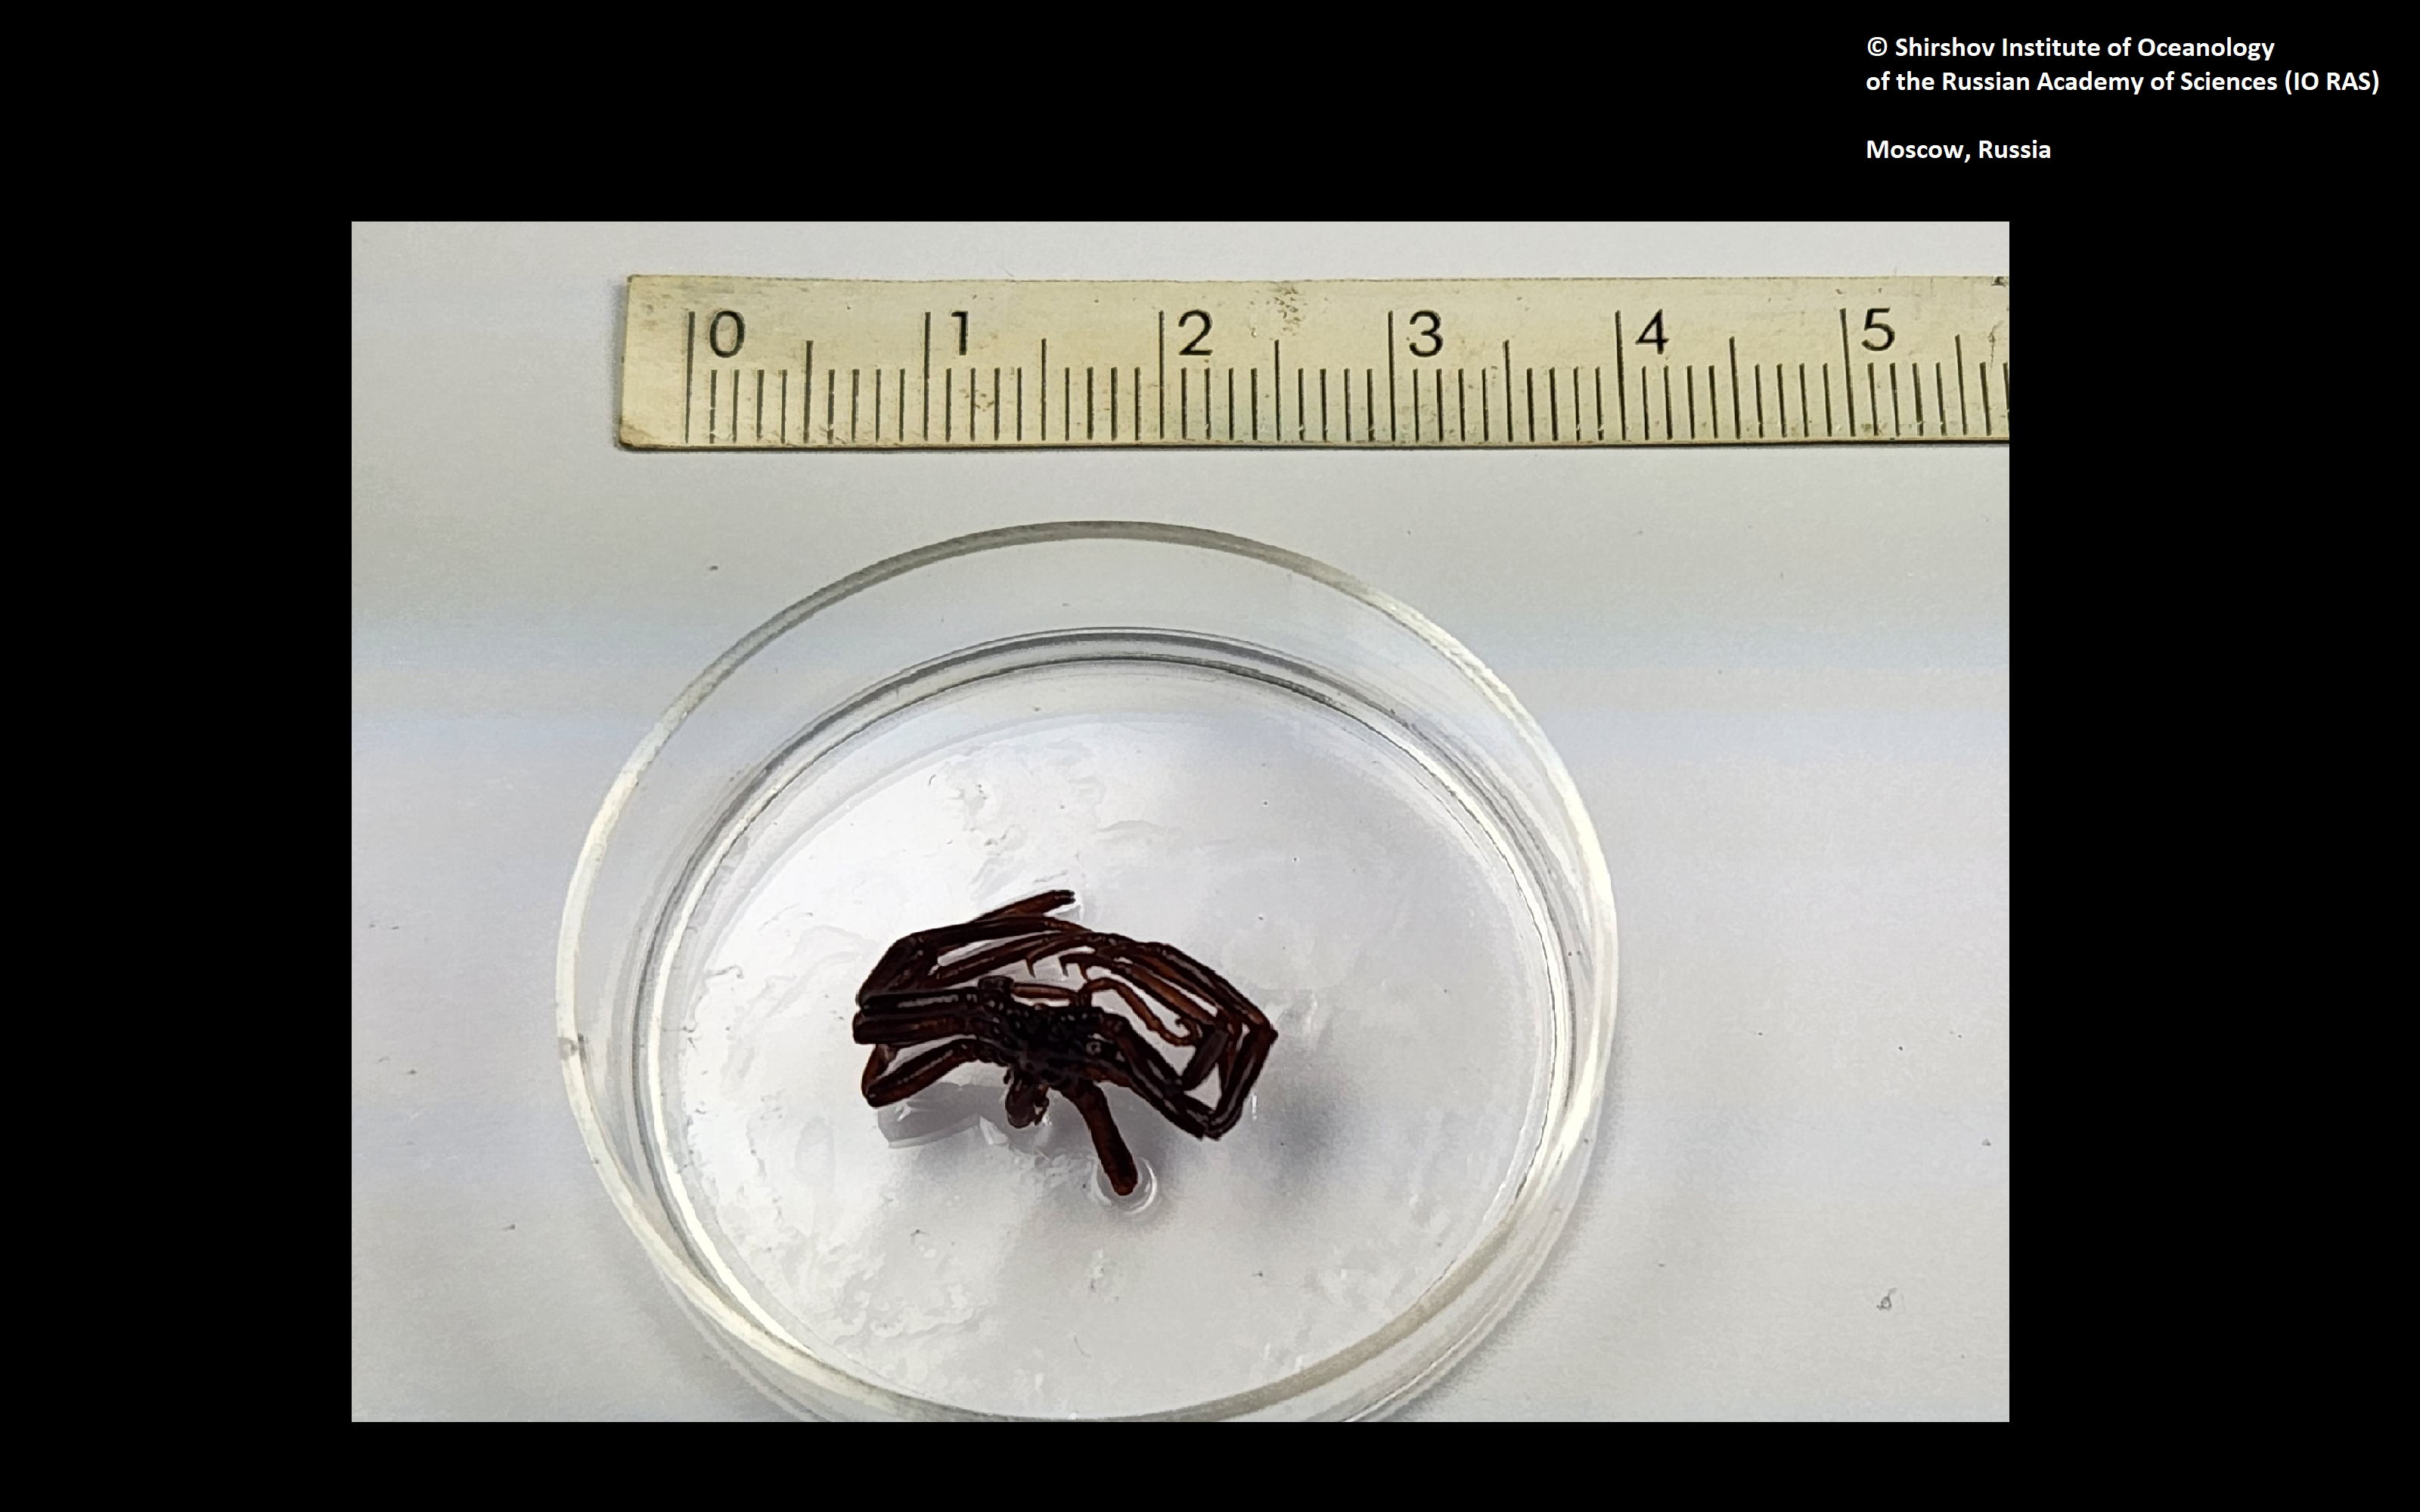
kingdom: Animalia
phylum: Arthropoda
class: Pycnogonida
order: Pantopoda
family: Colossendeidae
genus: Colossendeis
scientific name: Colossendeis losinskii
